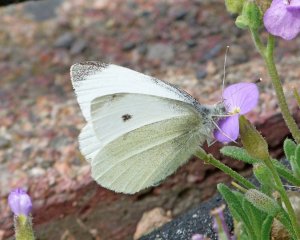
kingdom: Animalia
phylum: Arthropoda
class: Insecta
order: Lepidoptera
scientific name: Lepidoptera
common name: Butterflies
